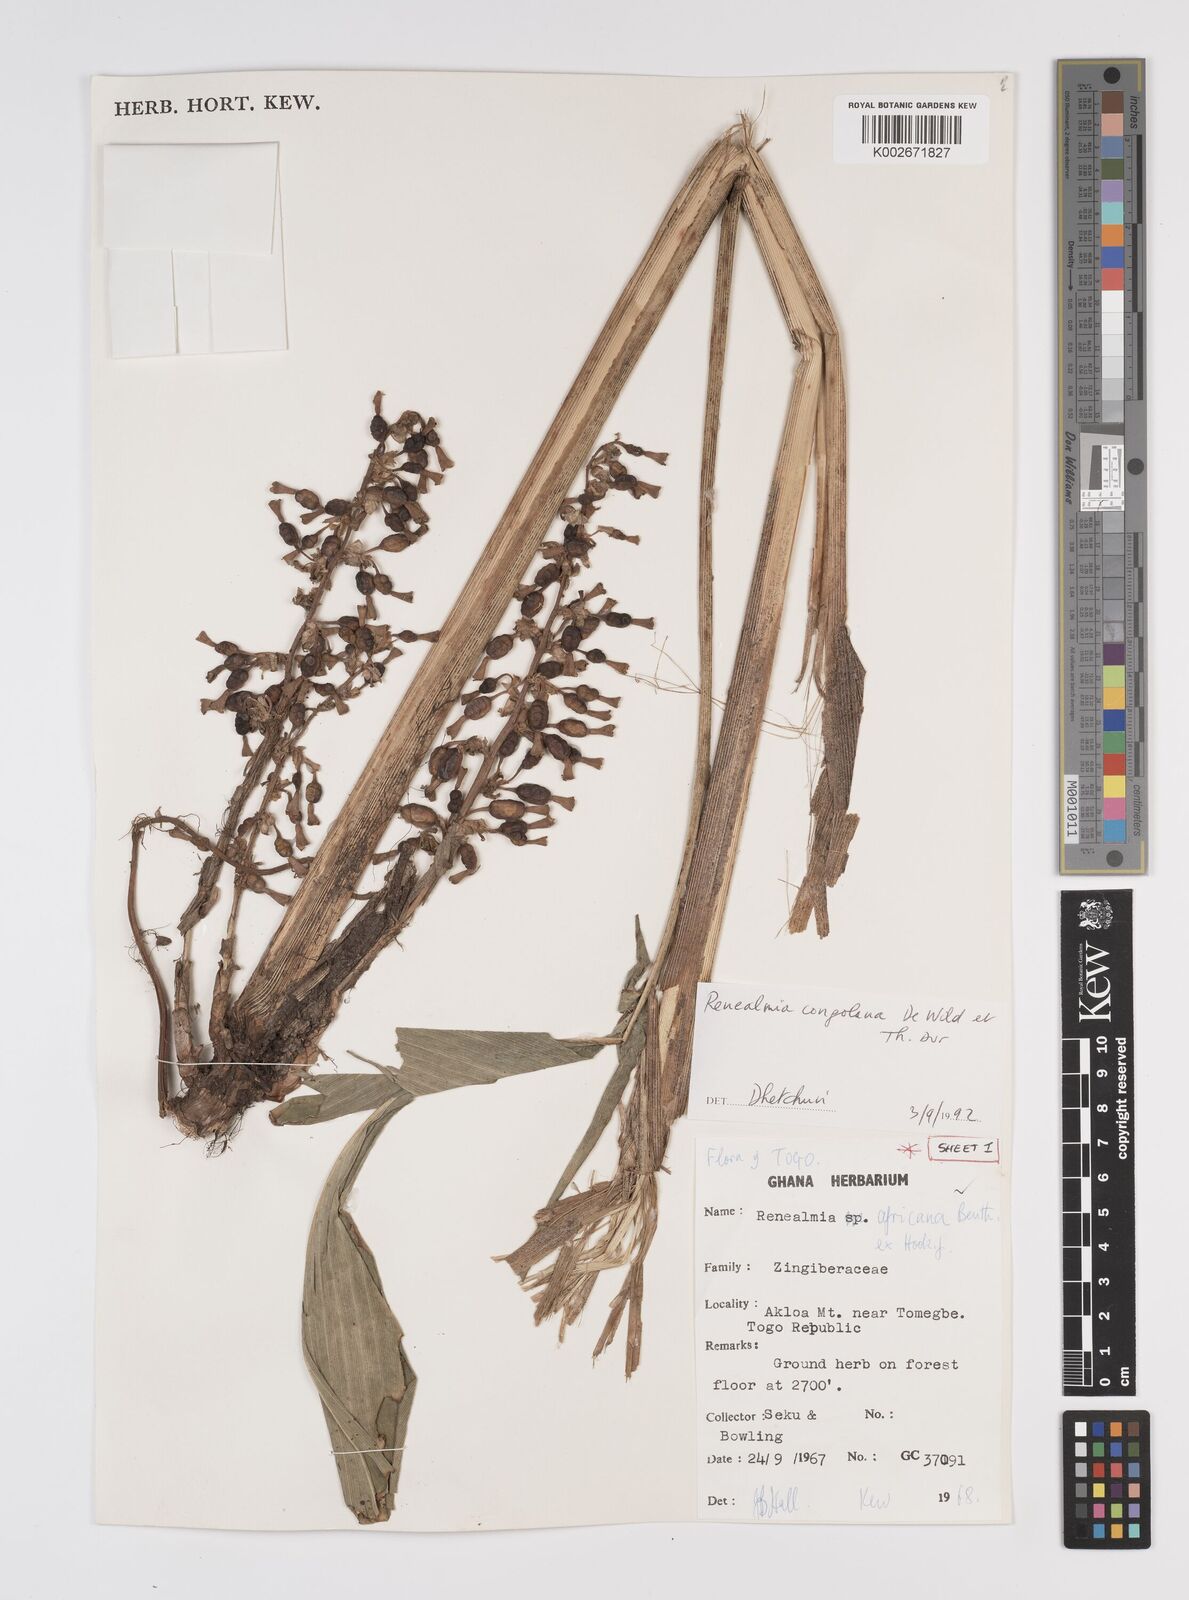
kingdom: Plantae
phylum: Tracheophyta
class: Liliopsida
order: Zingiberales
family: Zingiberaceae
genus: Renealmia
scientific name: Renealmia africana
